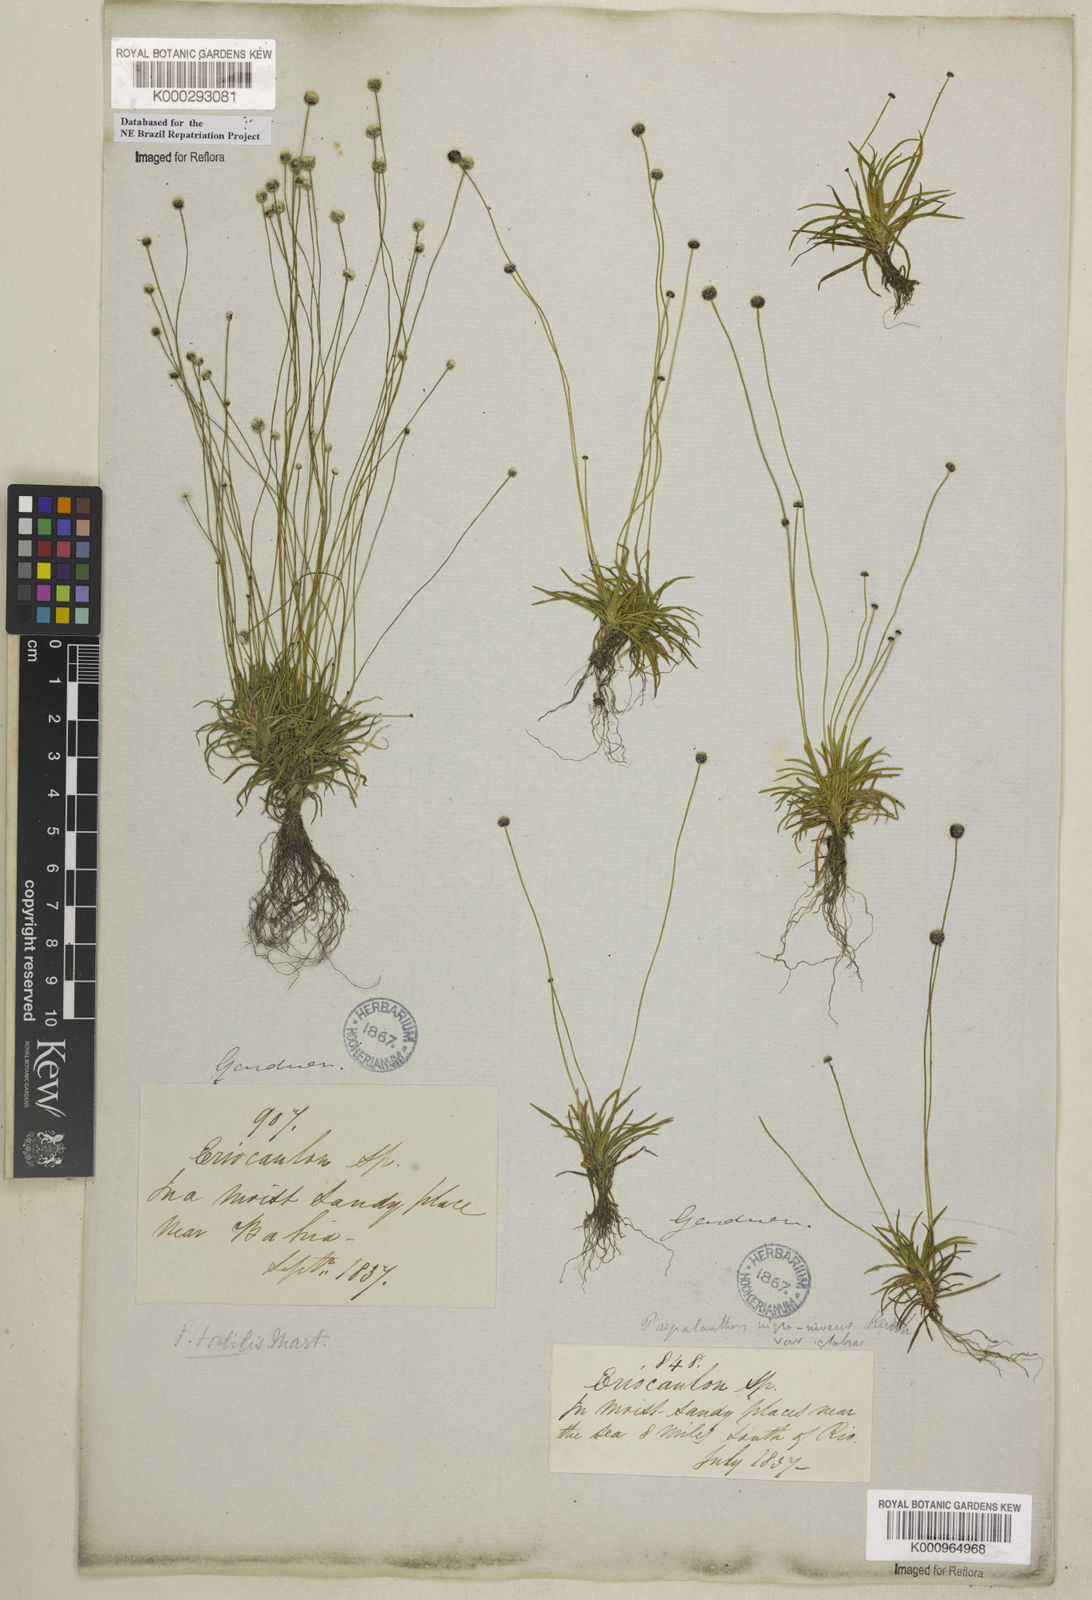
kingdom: Plantae
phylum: Tracheophyta
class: Liliopsida
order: Poales
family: Eriocaulaceae
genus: Paepalanthus
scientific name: Paepalanthus
